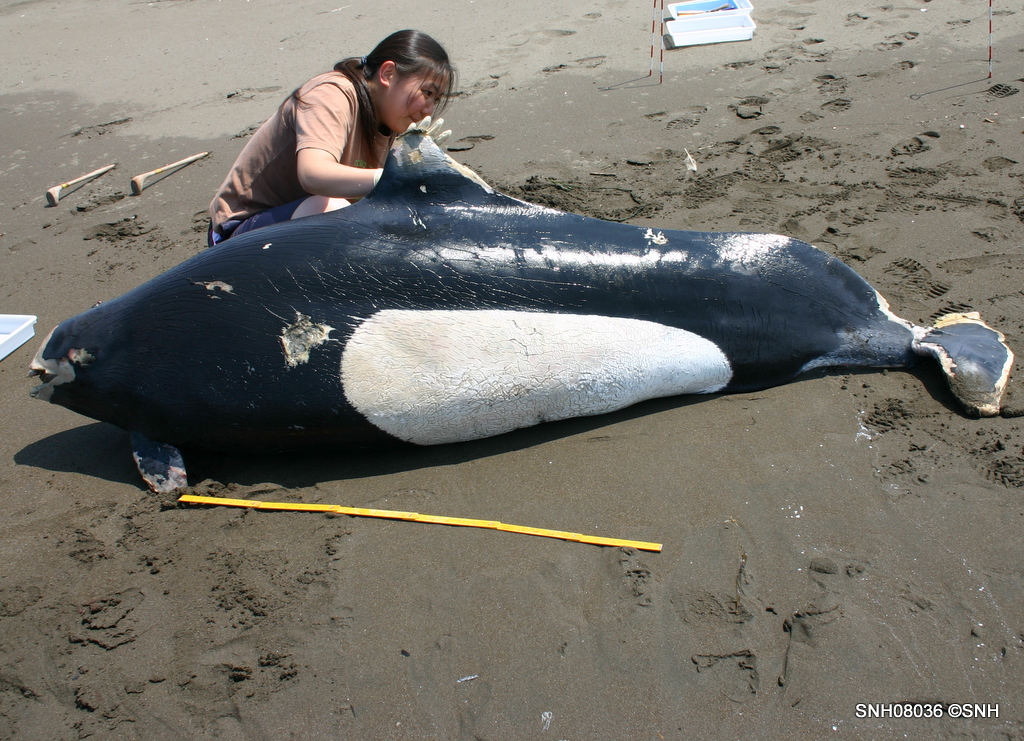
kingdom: Animalia
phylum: Chordata
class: Mammalia
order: Cetacea
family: Phocoenidae
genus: Phocoenoides
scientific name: Phocoenoides dalli
